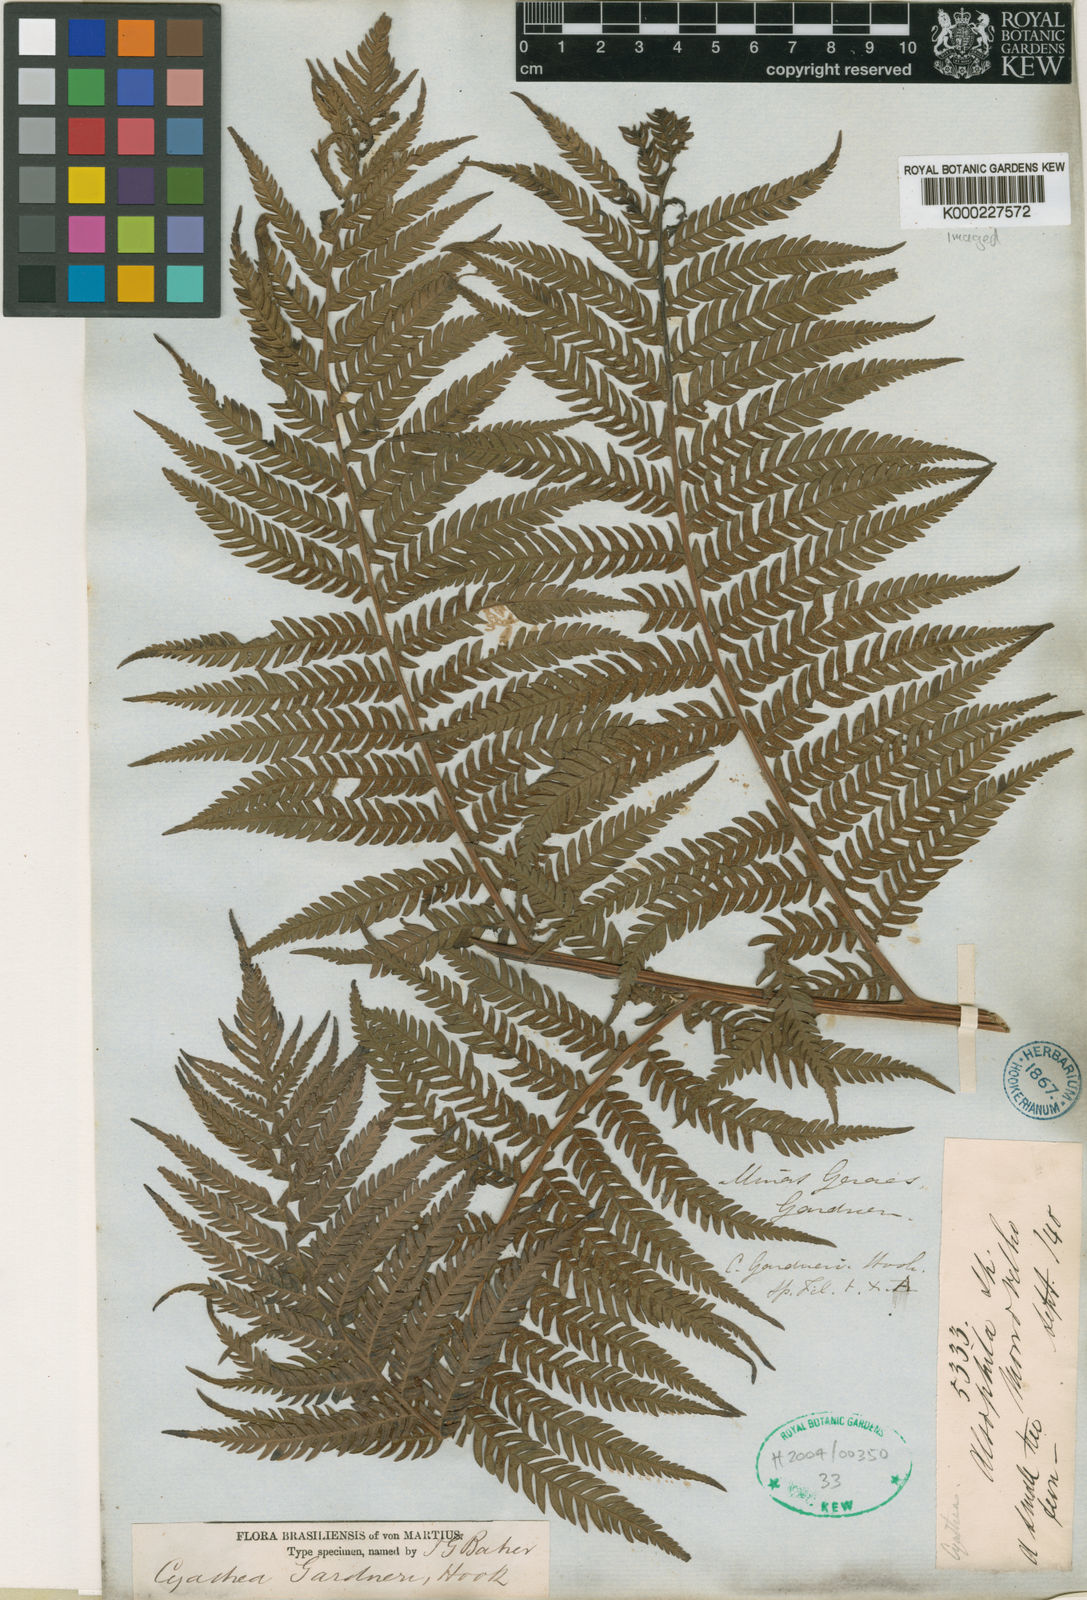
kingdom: Plantae
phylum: Tracheophyta
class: Polypodiopsida
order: Cyatheales
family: Cyatheaceae
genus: Sphaeropteris
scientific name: Sphaeropteris gardneri
